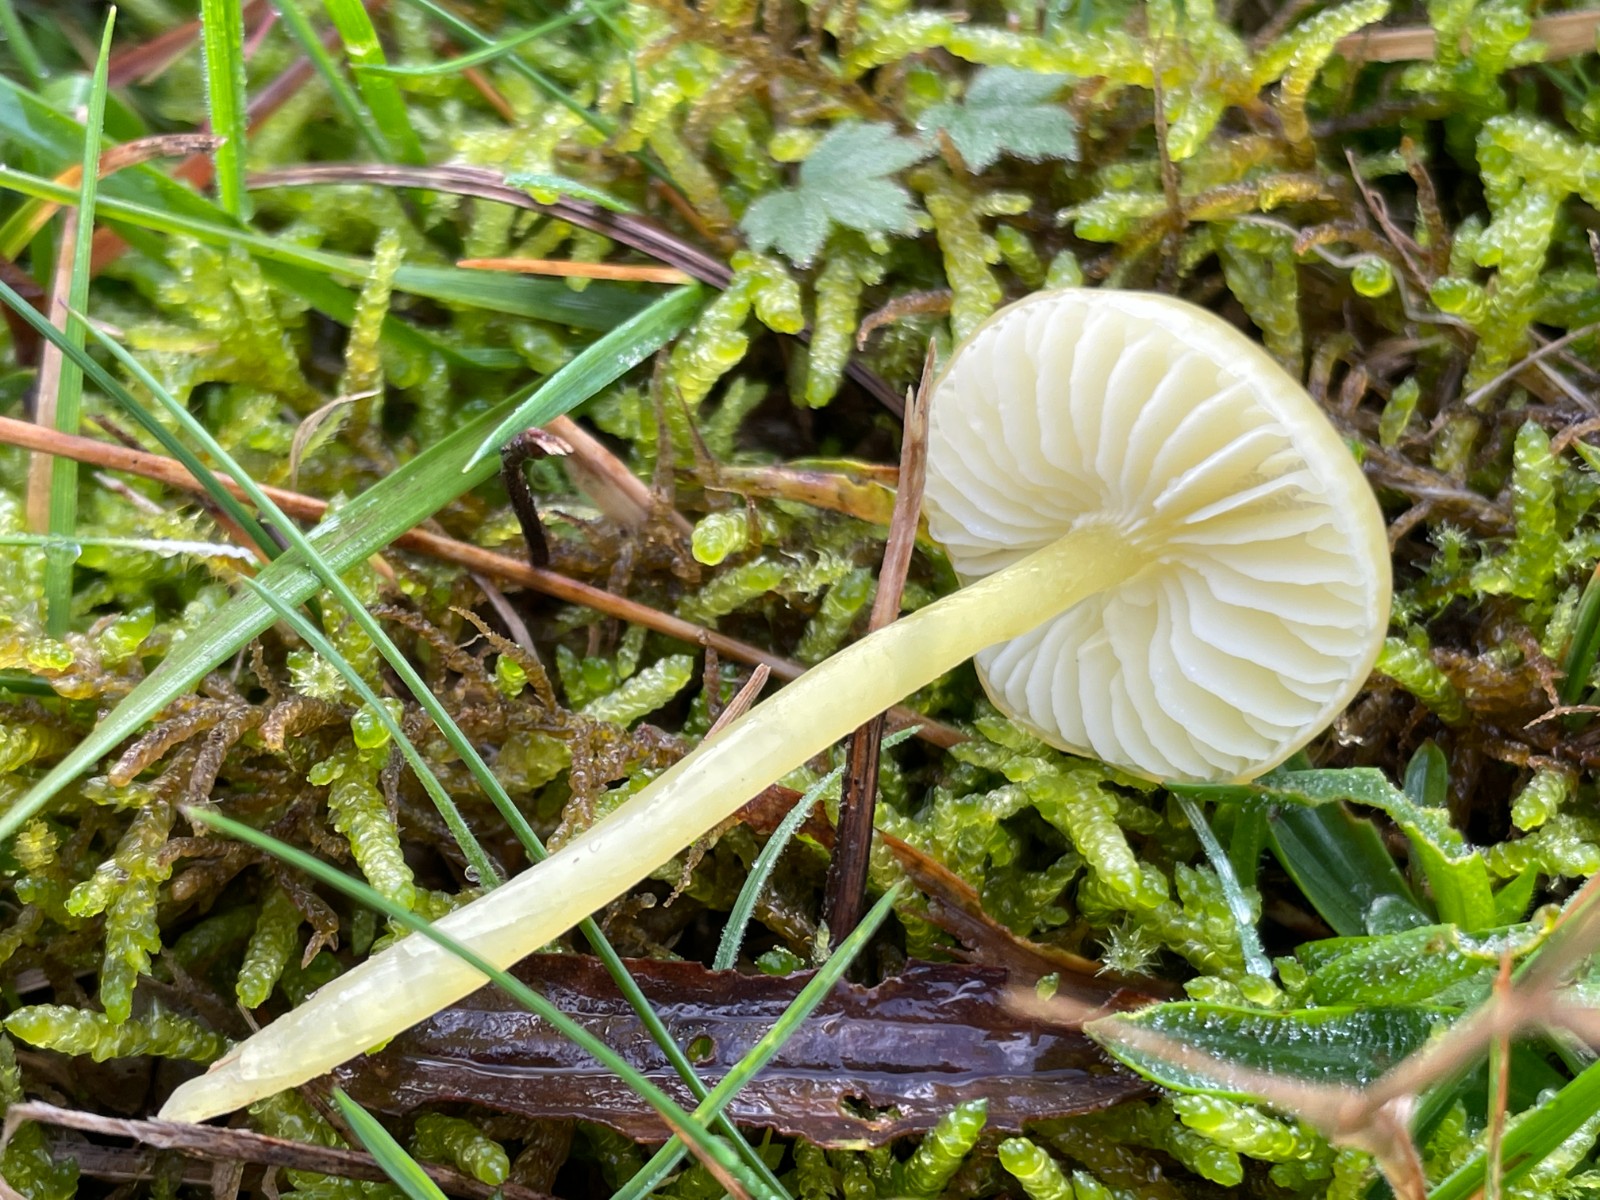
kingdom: Fungi
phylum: Basidiomycota
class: Agaricomycetes
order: Agaricales
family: Hygrophoraceae
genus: Hygrocybe
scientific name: Hygrocybe glutinipes
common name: slimstokket vokshat
